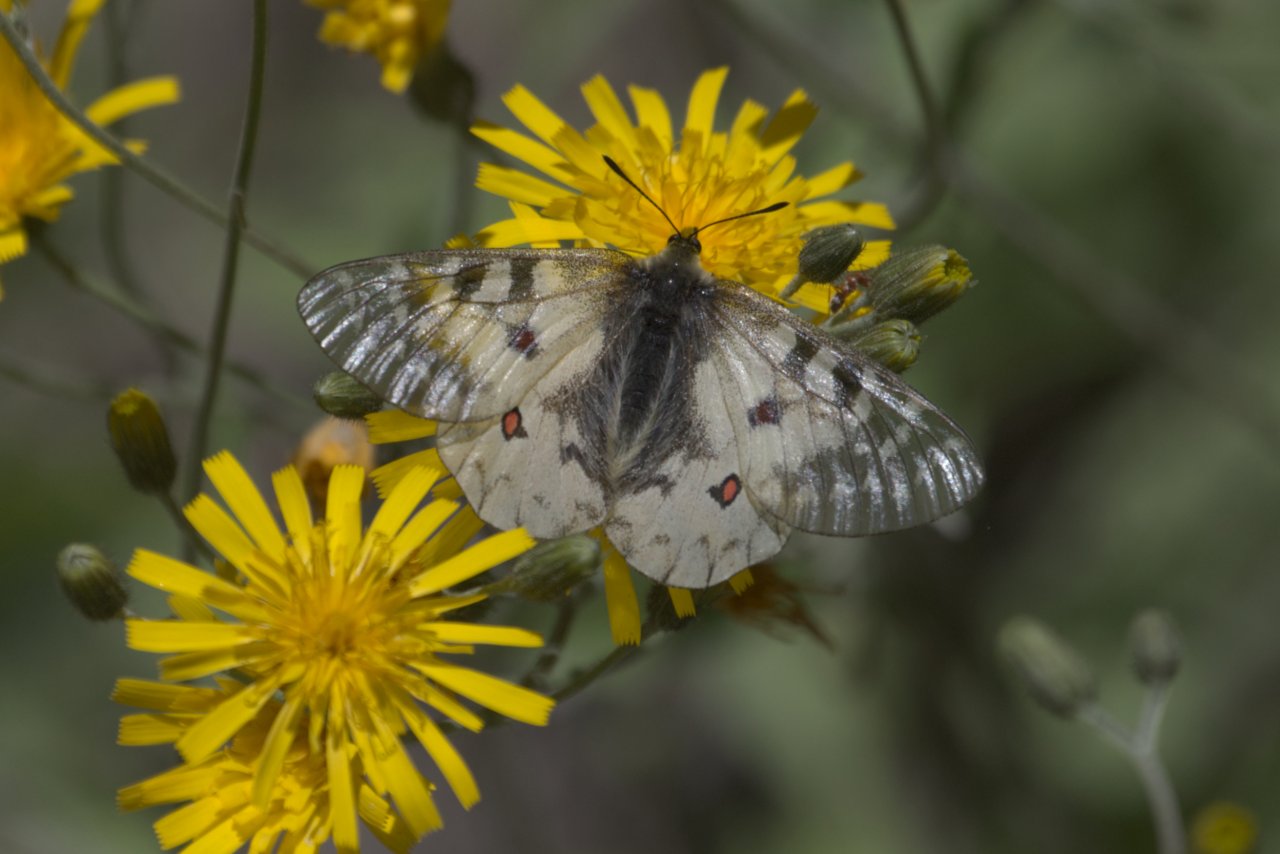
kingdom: Animalia
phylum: Arthropoda
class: Insecta
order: Lepidoptera
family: Papilionidae
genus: Parnassius
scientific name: Parnassius clodius
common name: Clodius Parnassian
